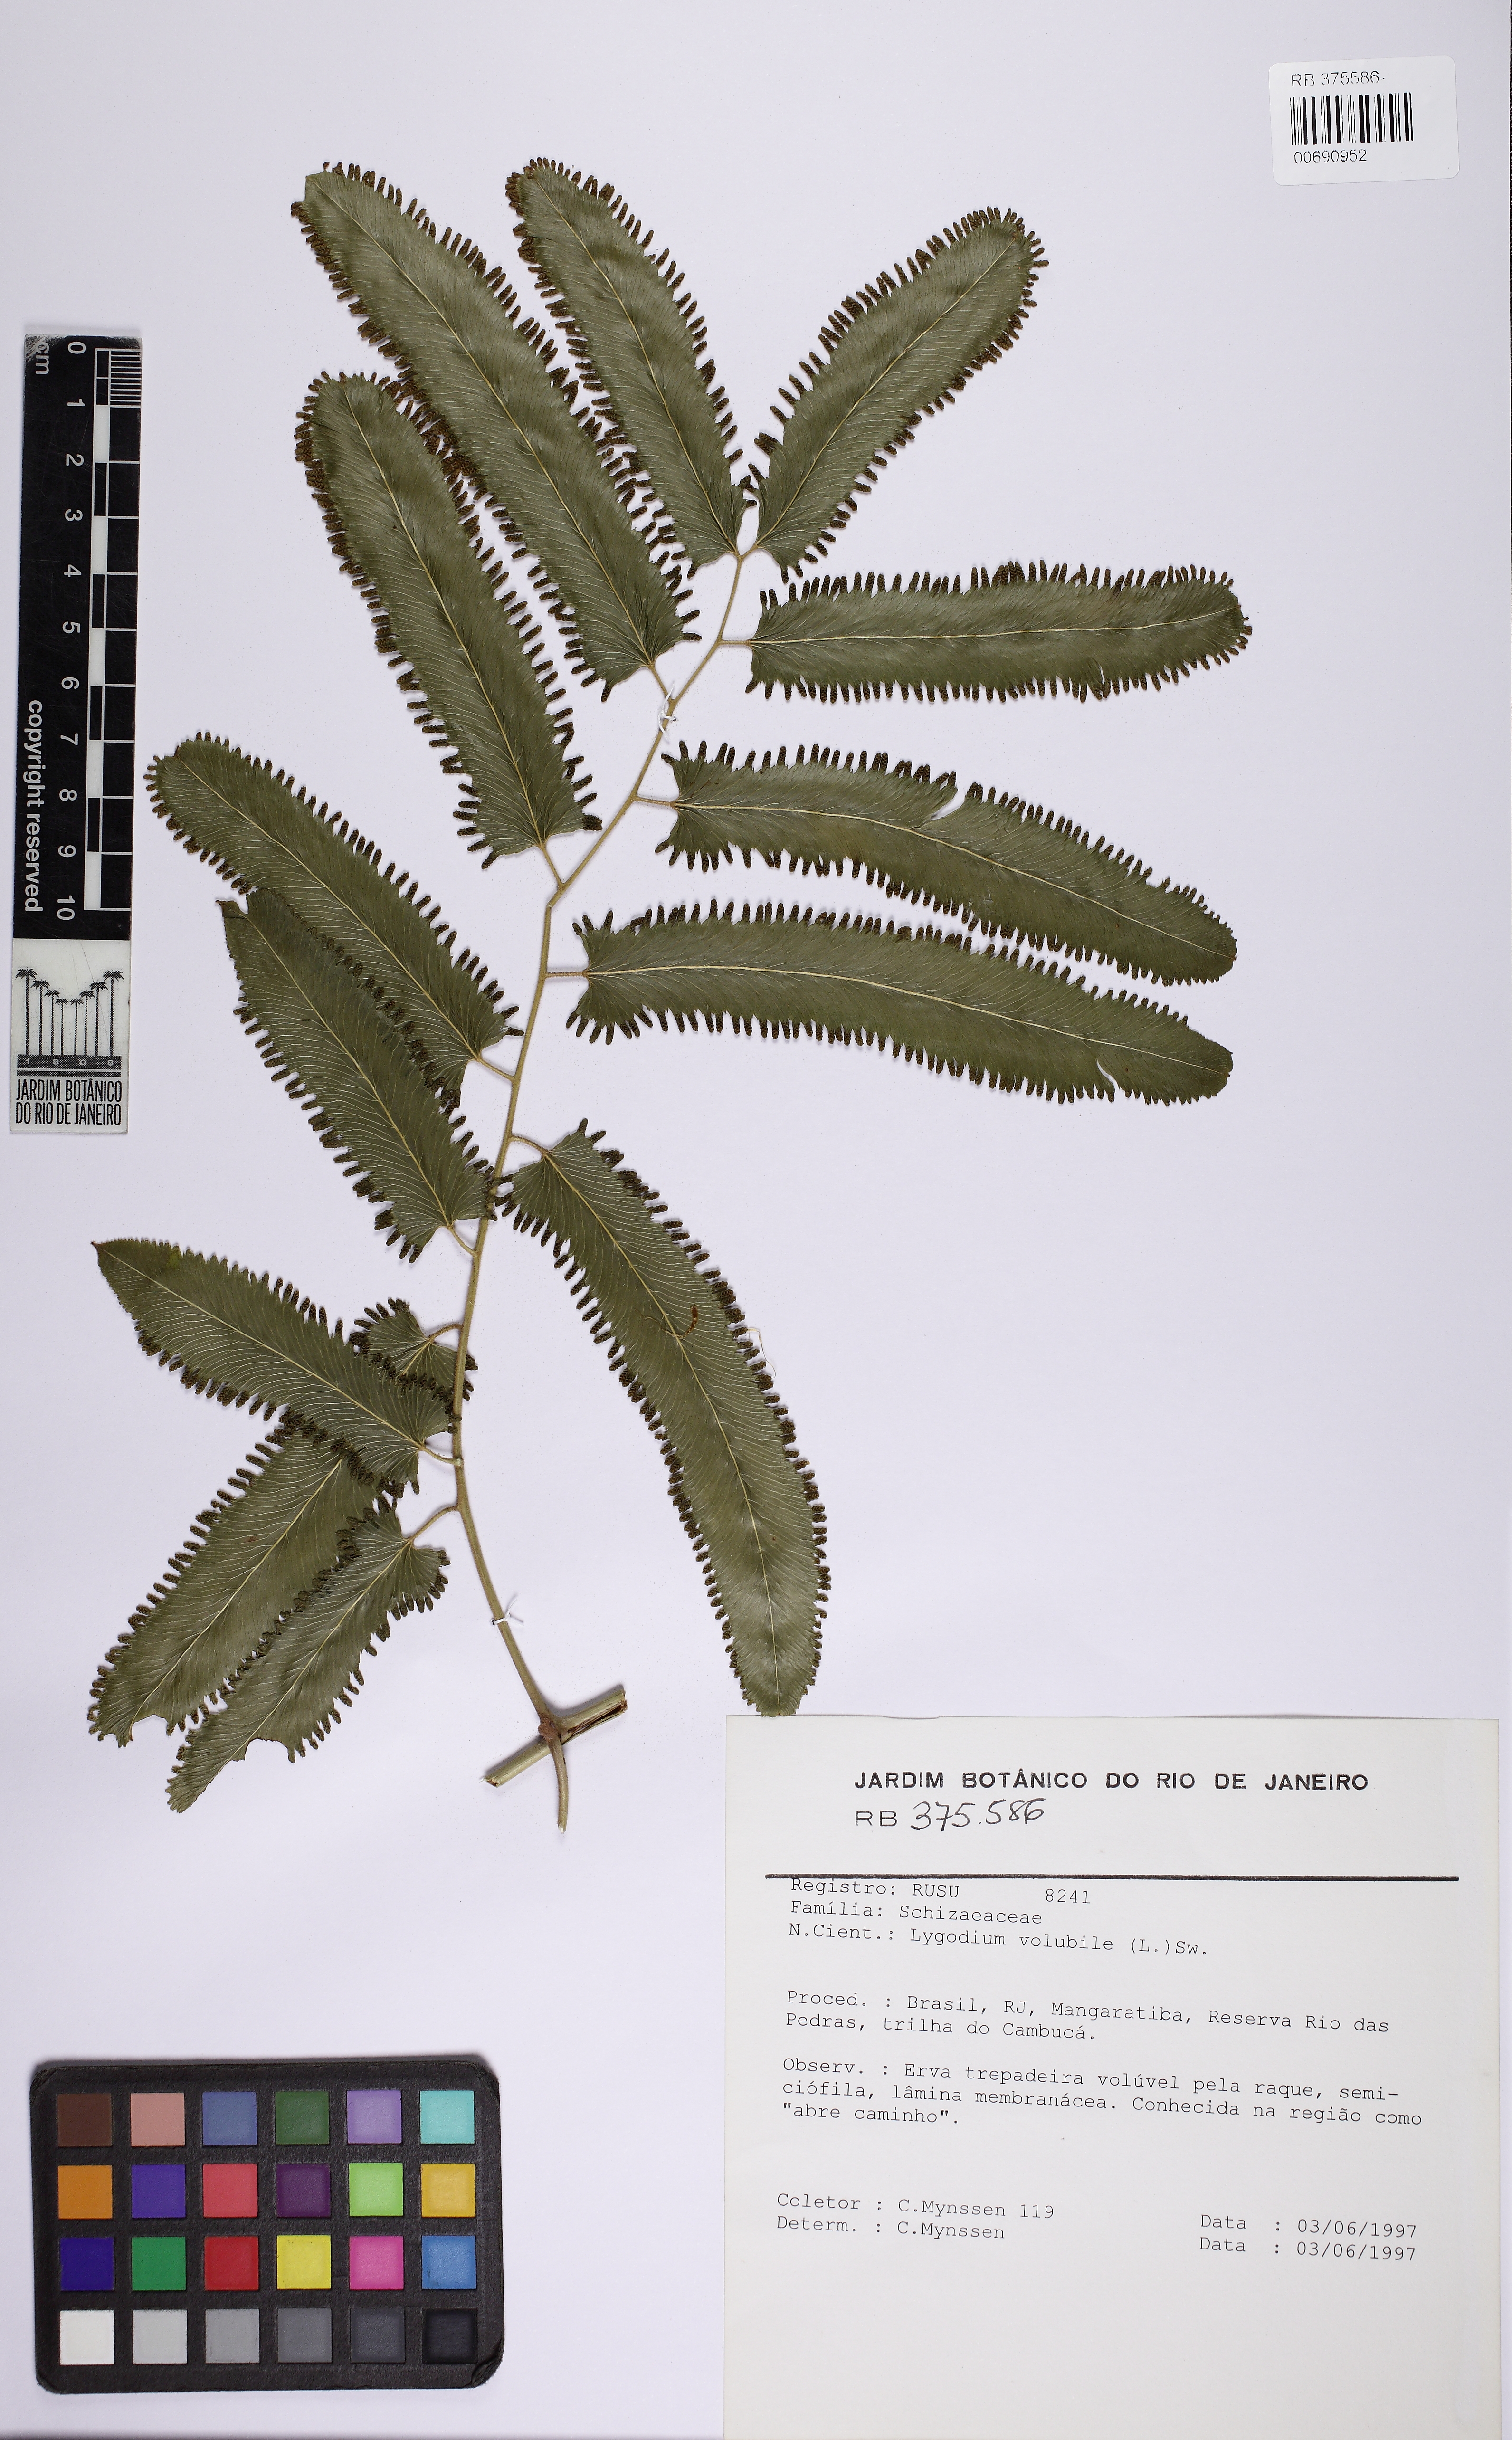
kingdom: Plantae
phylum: Tracheophyta
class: Polypodiopsida
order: Schizaeales
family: Lygodiaceae
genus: Lygodium
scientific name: Lygodium volubile
